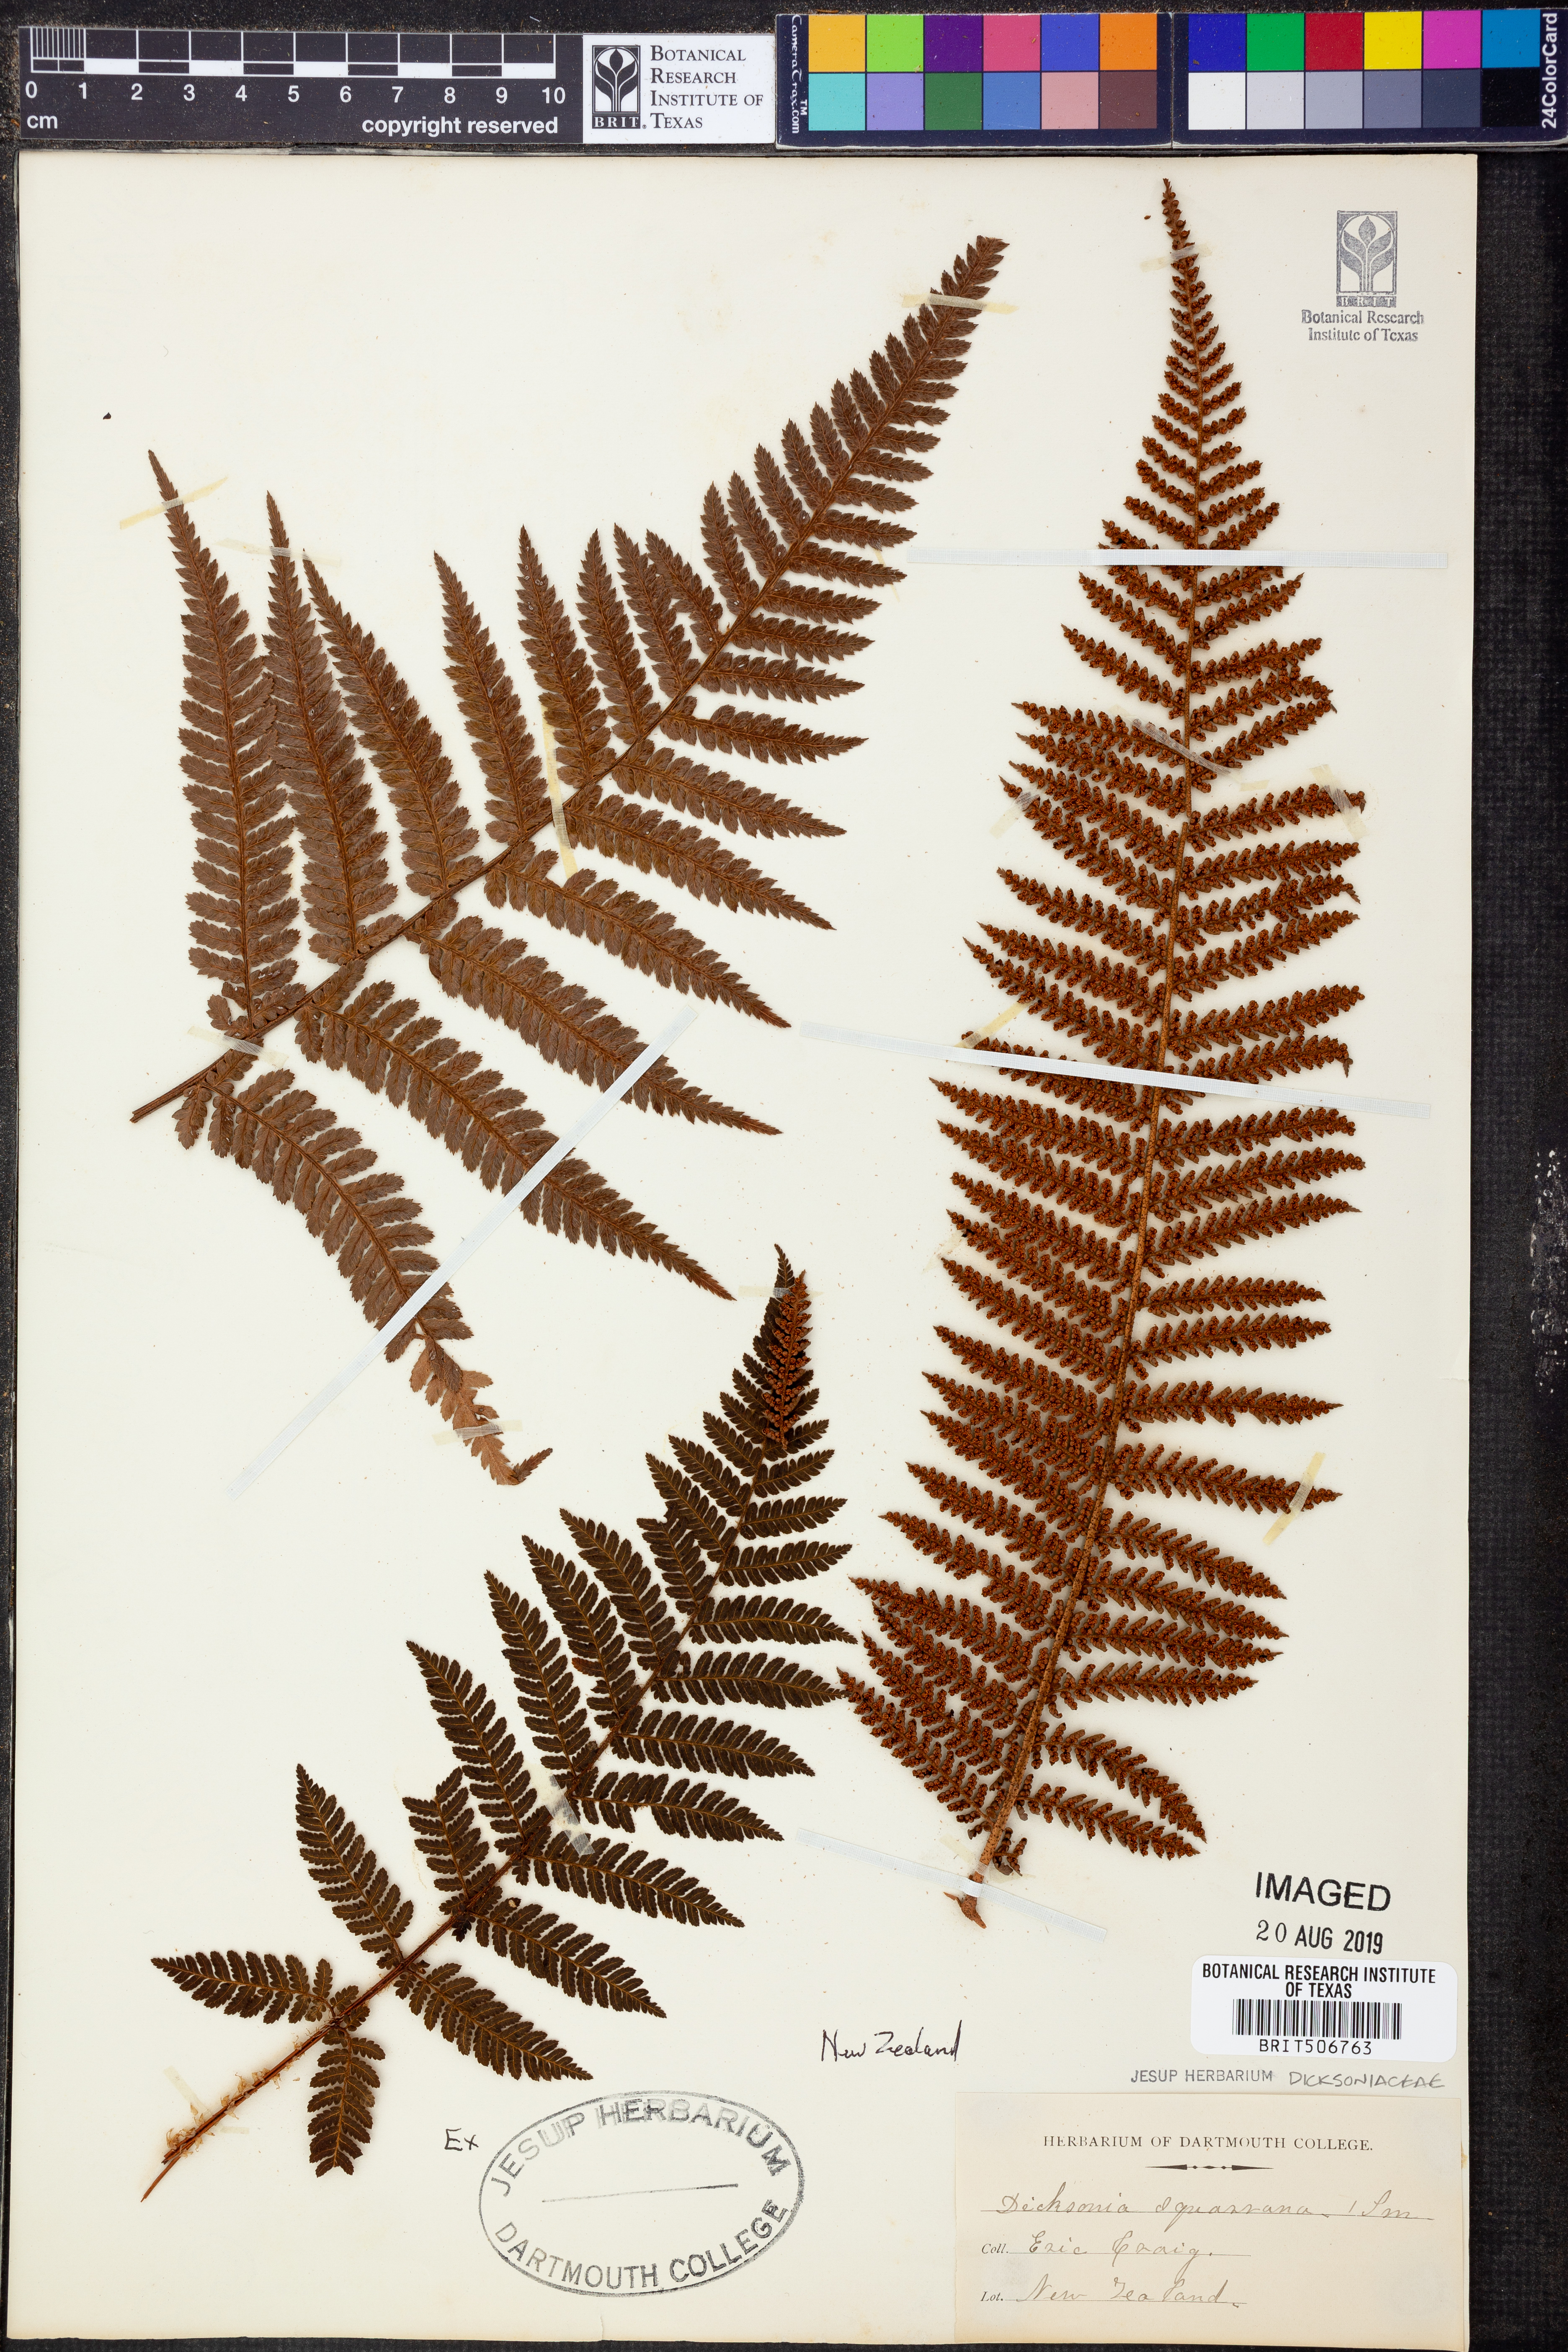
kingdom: Plantae
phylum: Tracheophyta
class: Polypodiopsida
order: Cyatheales
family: Dicksoniaceae
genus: Dicksonia
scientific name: Dicksonia squarrosa
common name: Hard treefern
